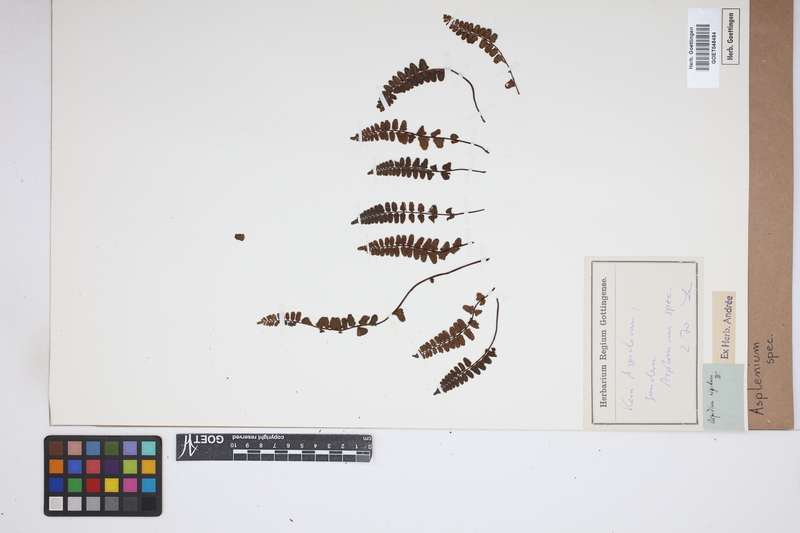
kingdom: Plantae
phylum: Tracheophyta
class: Polypodiopsida
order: Polypodiales
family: Aspleniaceae
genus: Asplenium
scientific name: Asplenium
